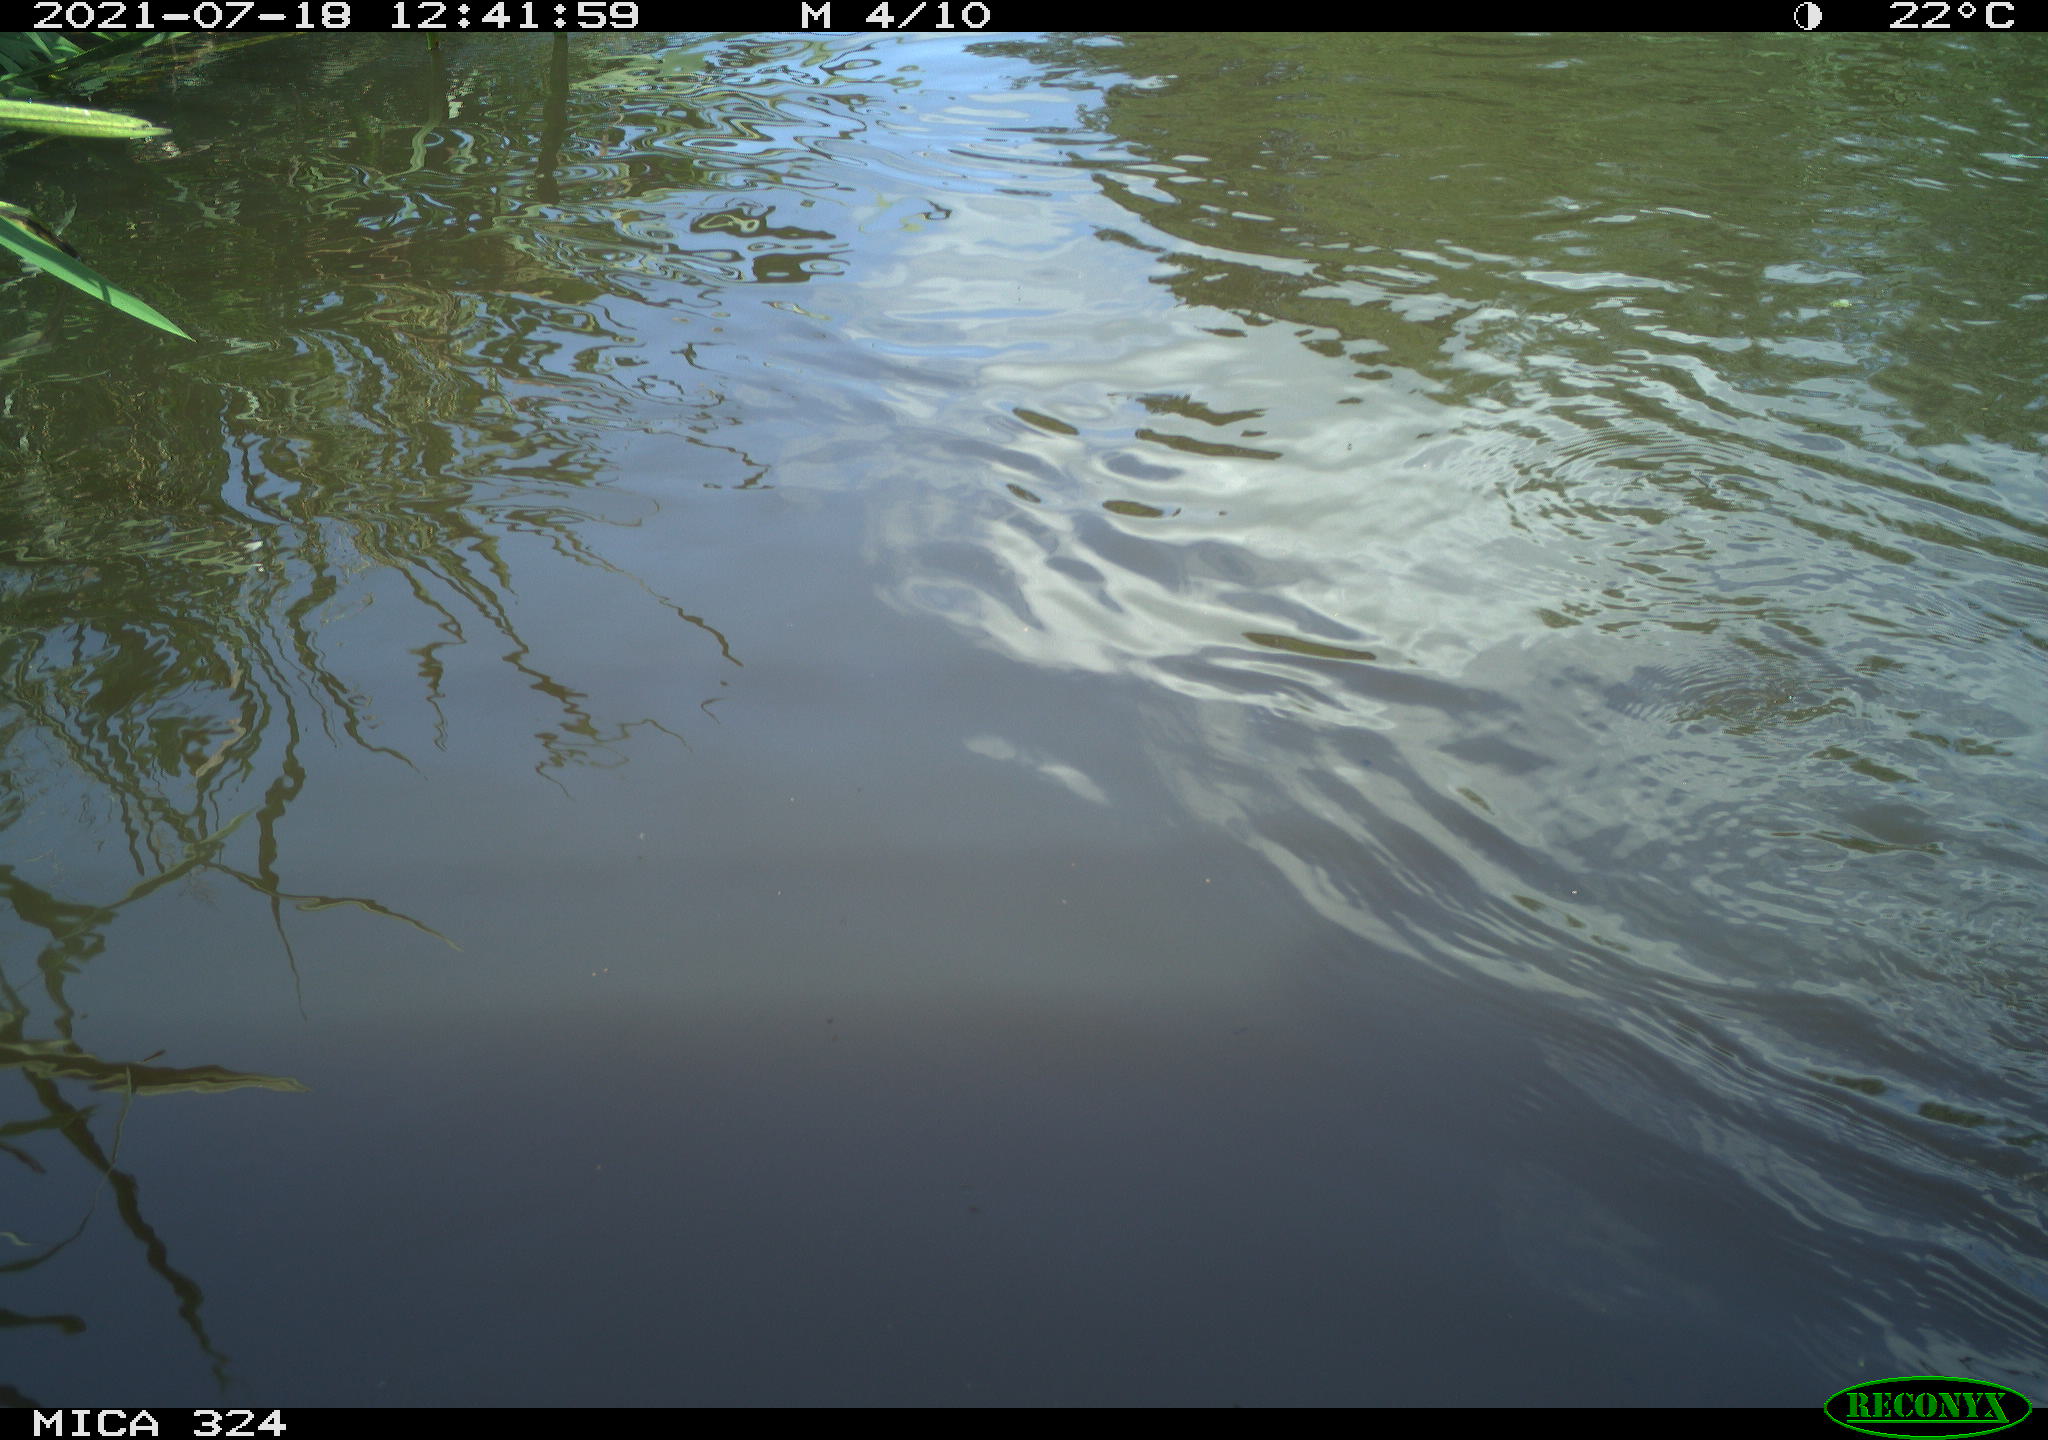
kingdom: Animalia
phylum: Chordata
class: Aves
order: Anseriformes
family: Anatidae
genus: Anas
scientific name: Anas platyrhynchos
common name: Mallard
